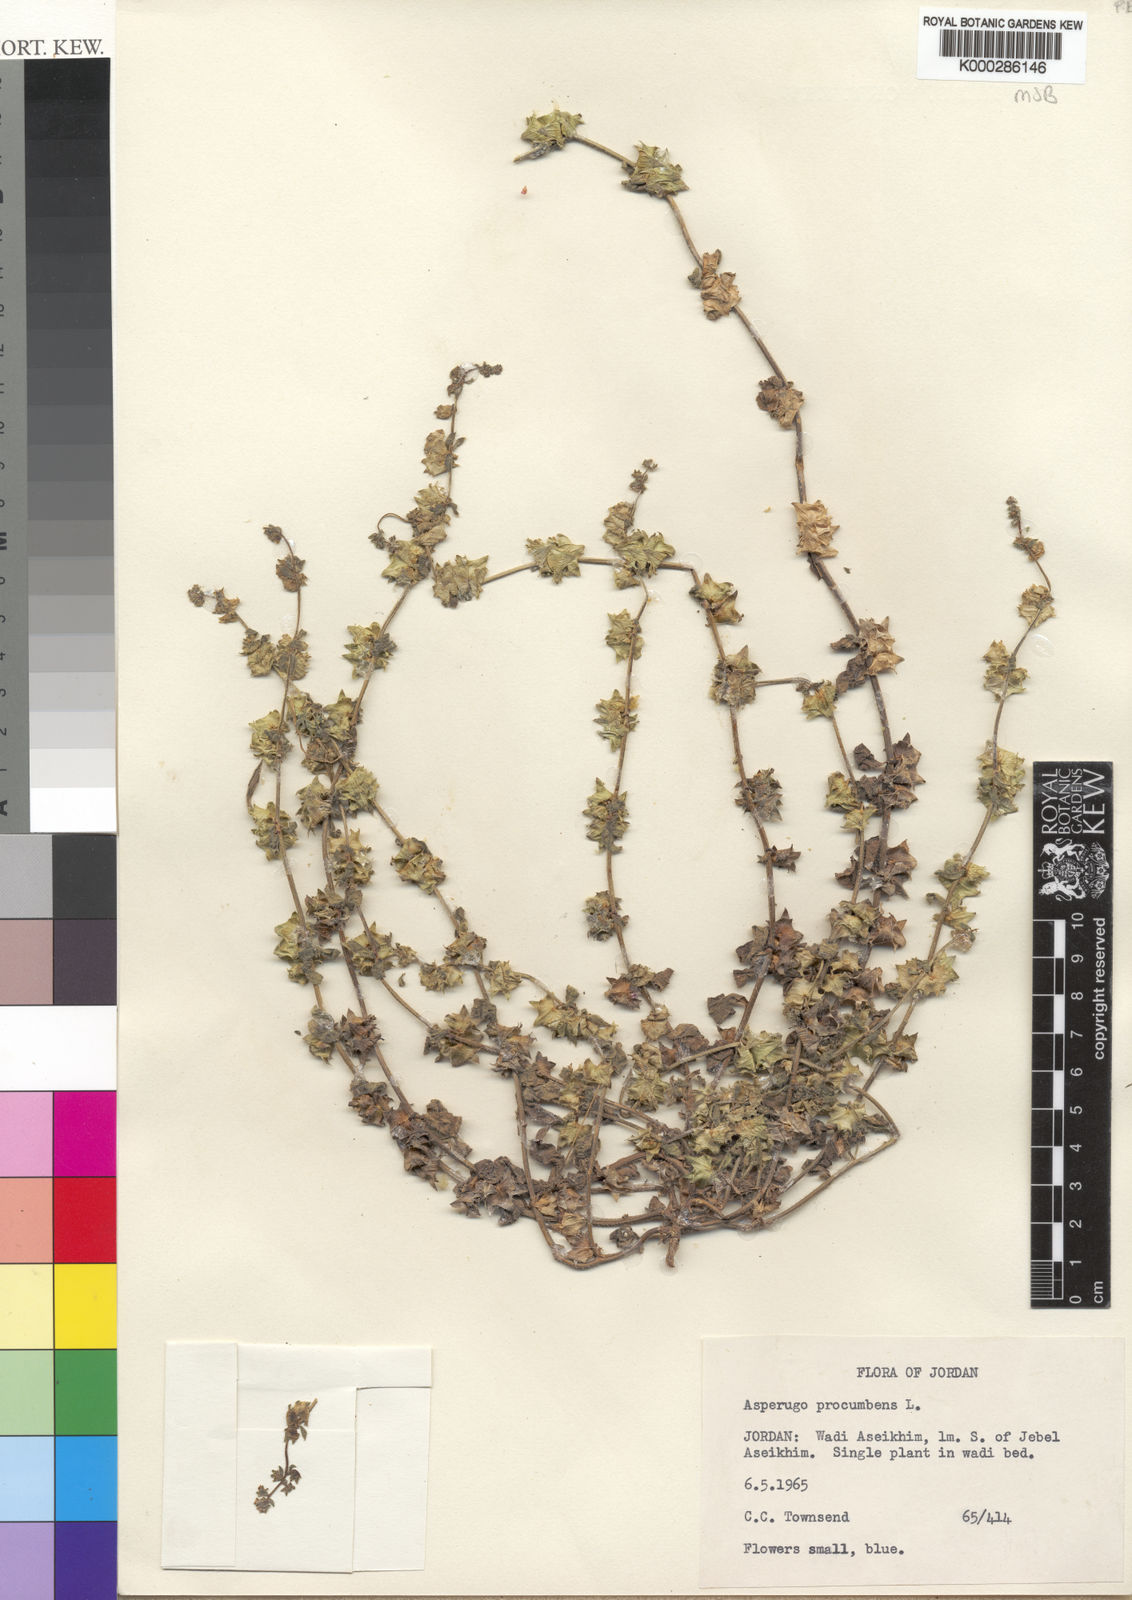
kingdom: Plantae
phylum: Tracheophyta
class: Magnoliopsida
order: Boraginales
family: Boraginaceae
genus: Asperugo
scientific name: Asperugo procumbens
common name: Madwort
